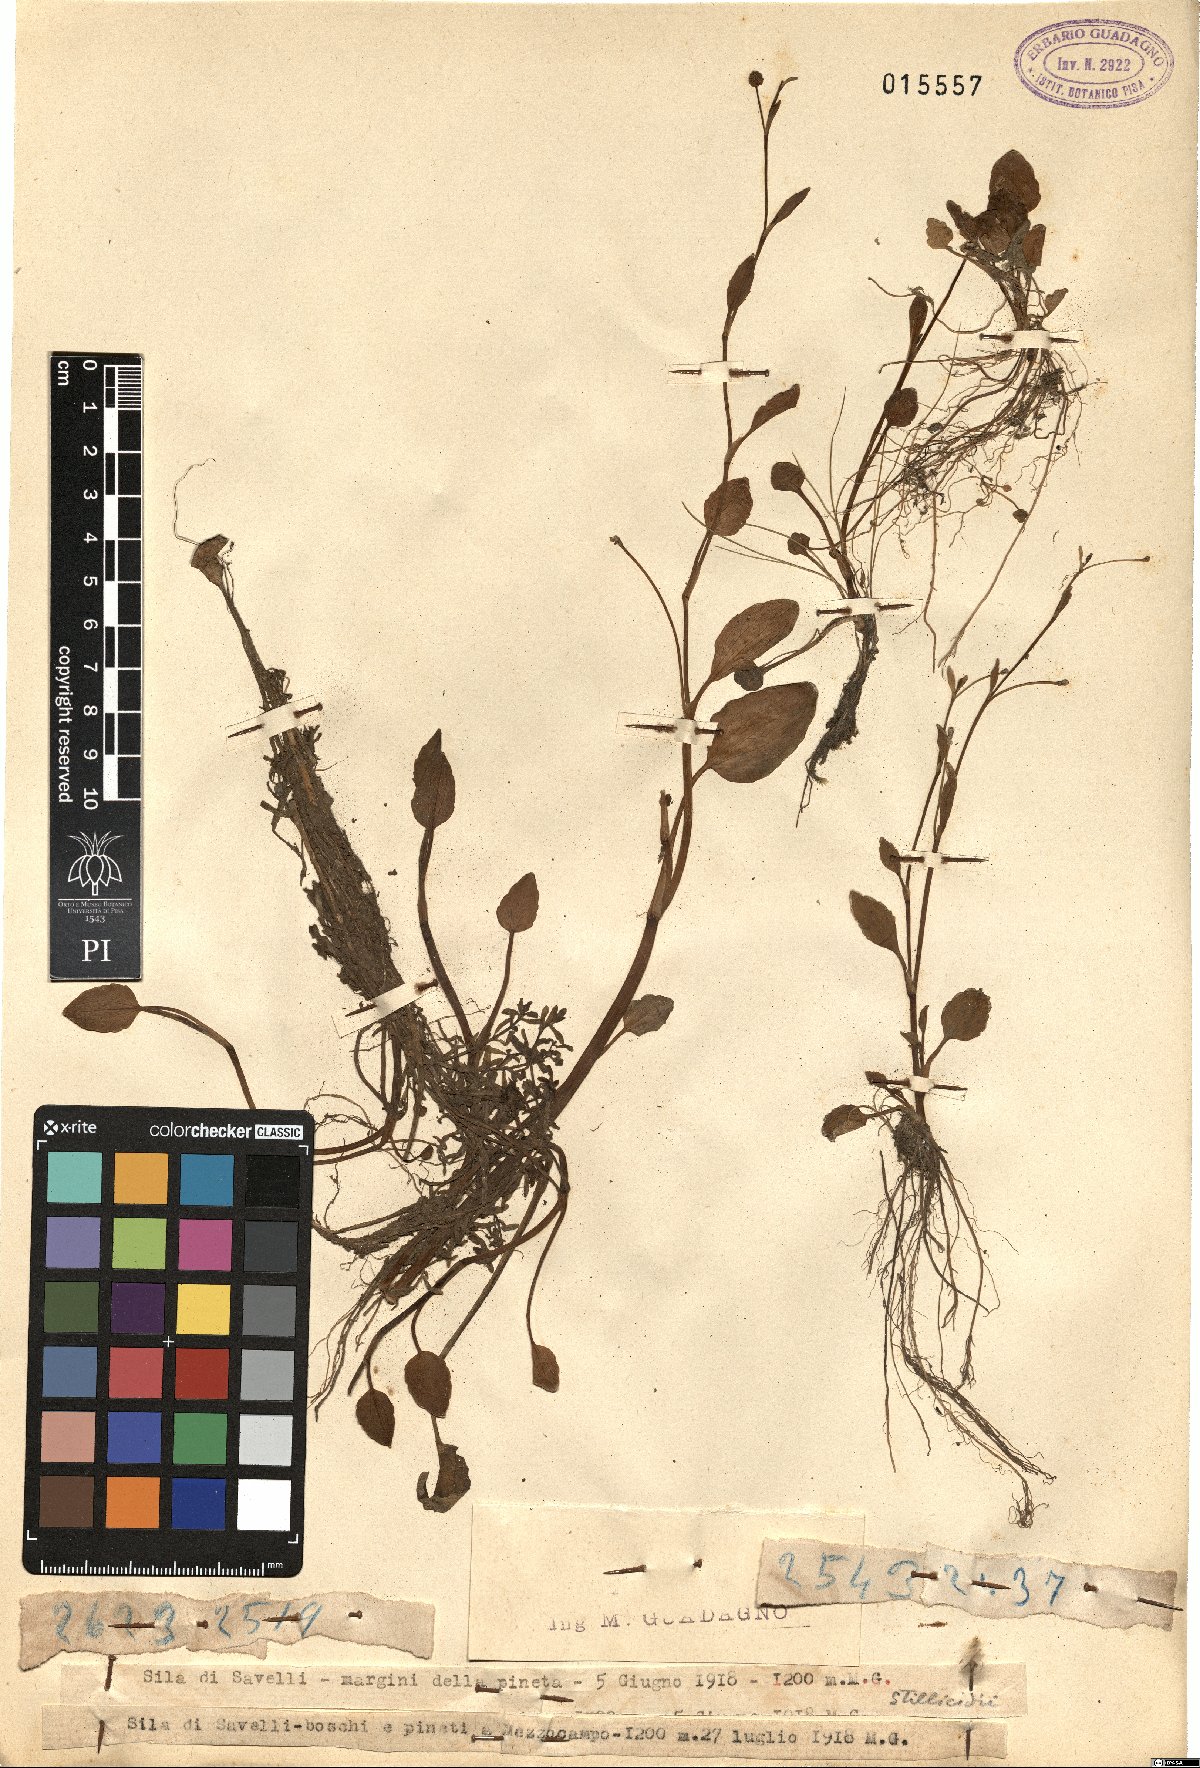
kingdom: Plantae
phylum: Tracheophyta
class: Magnoliopsida
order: Ranunculales
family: Ranunculaceae
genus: Ranunculus
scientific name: Ranunculus
